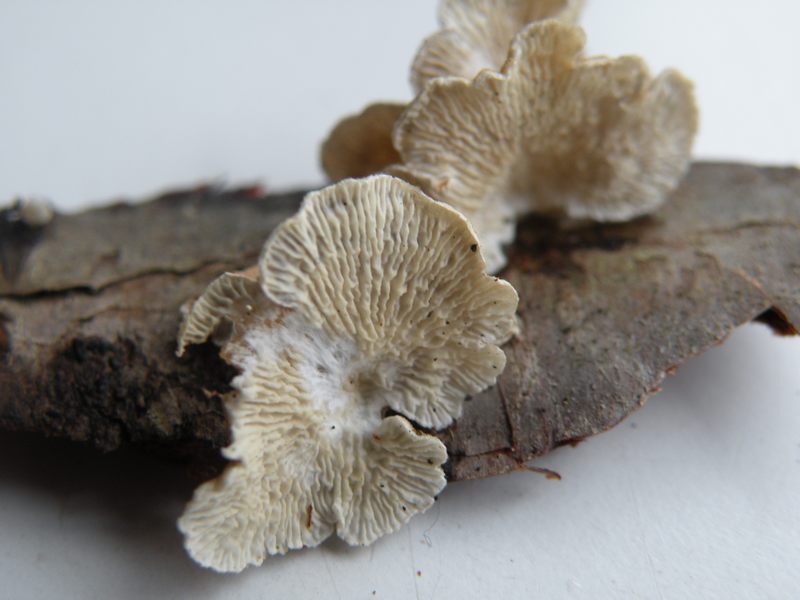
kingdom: Fungi
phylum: Basidiomycota
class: Agaricomycetes
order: Amylocorticiales
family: Amylocorticiaceae
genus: Plicaturopsis
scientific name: Plicaturopsis crispa
